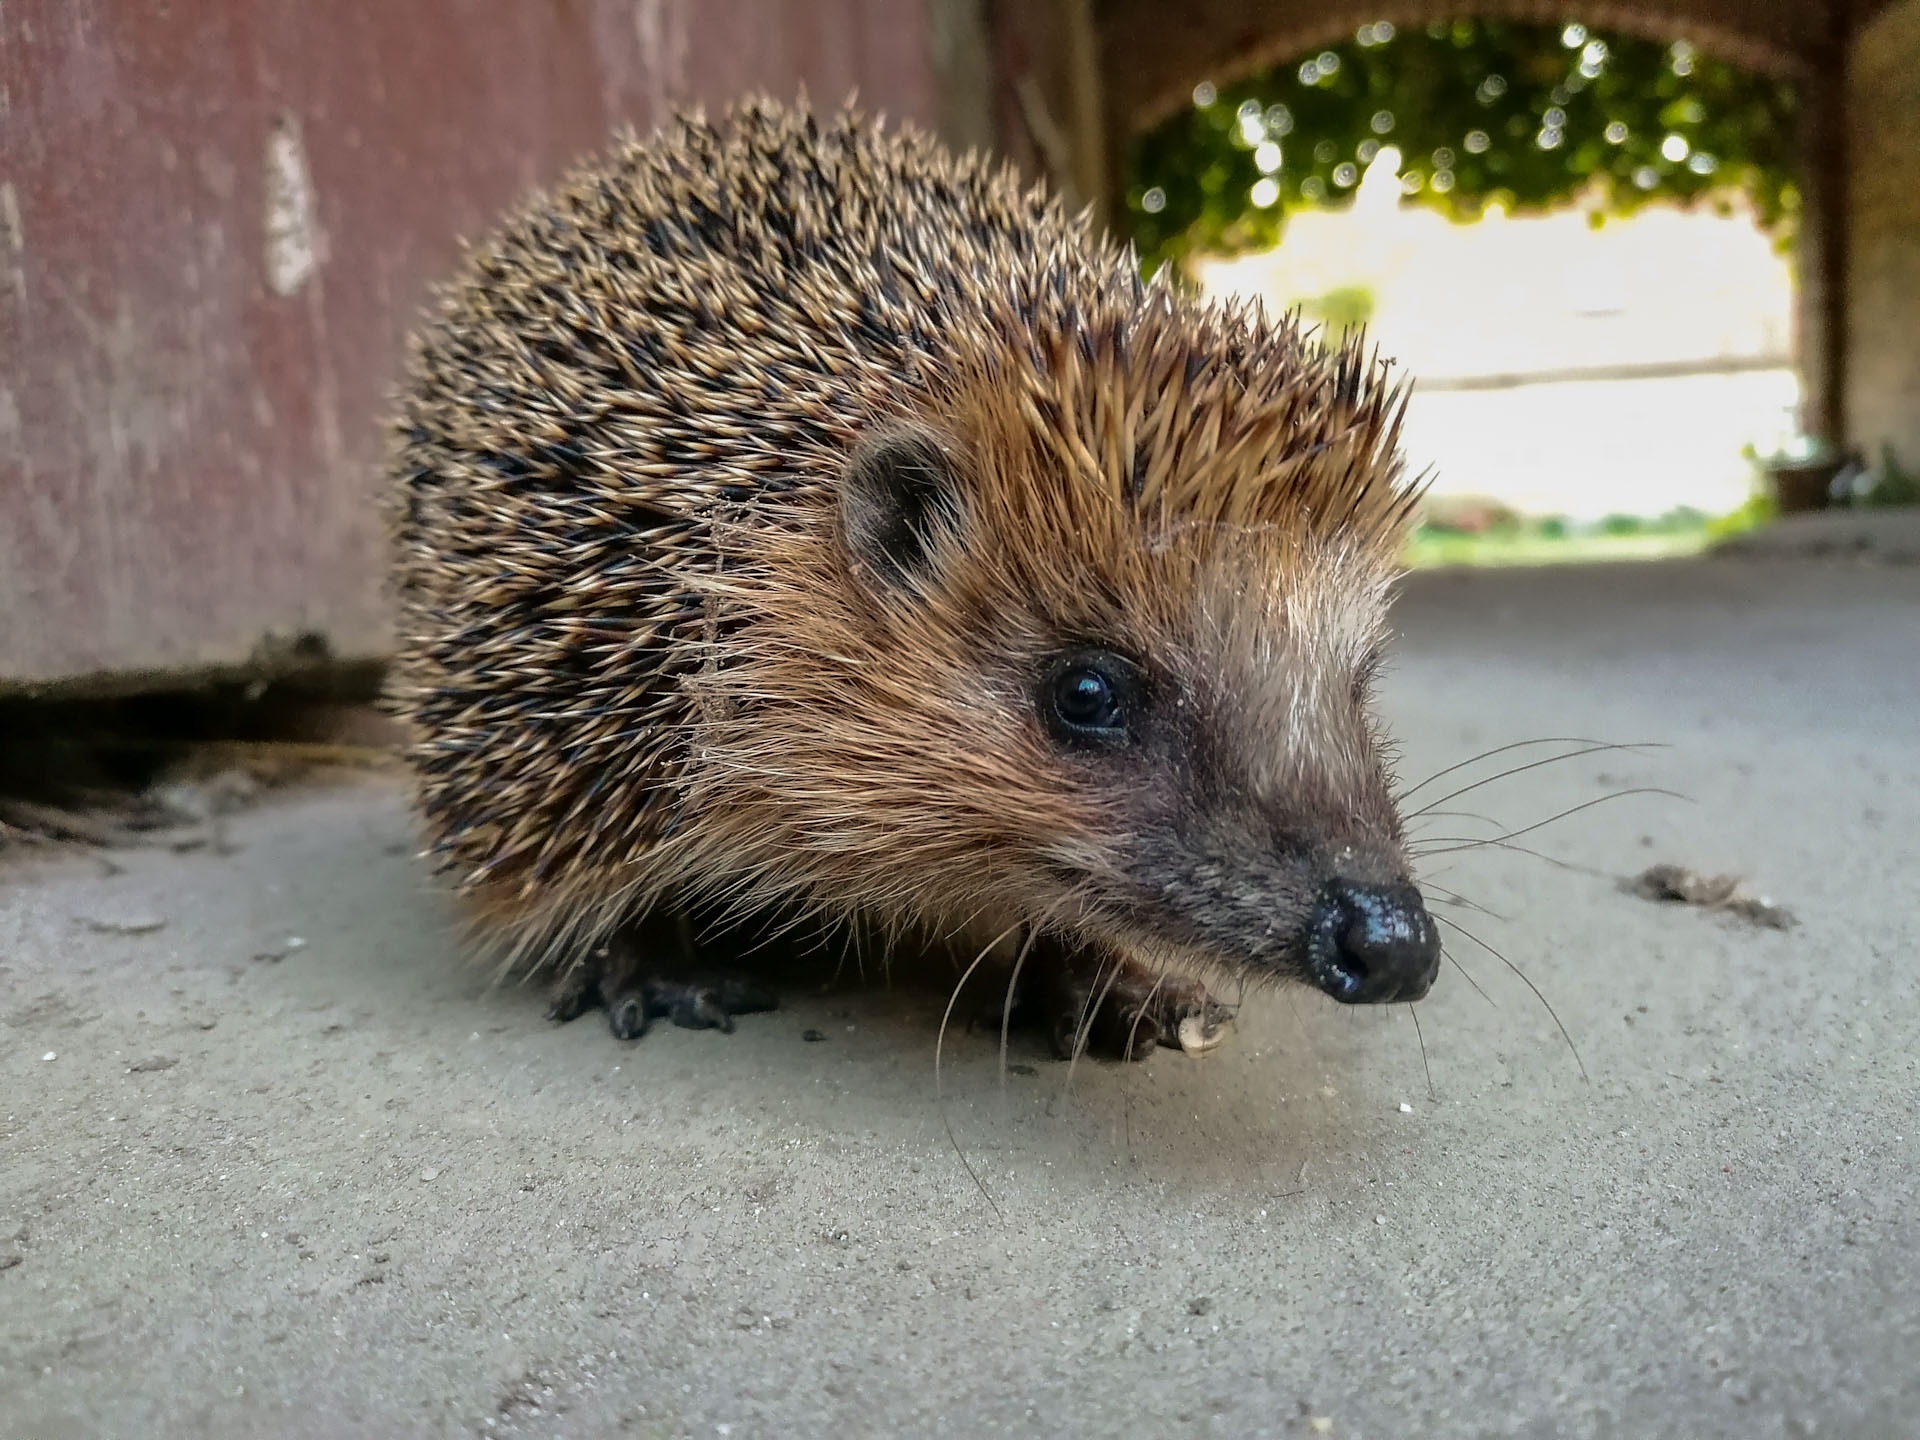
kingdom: Animalia
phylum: Chordata
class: Mammalia
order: Erinaceomorpha
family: Erinaceidae
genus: Erinaceus
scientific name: Erinaceus europaeus
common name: Pindsvin
